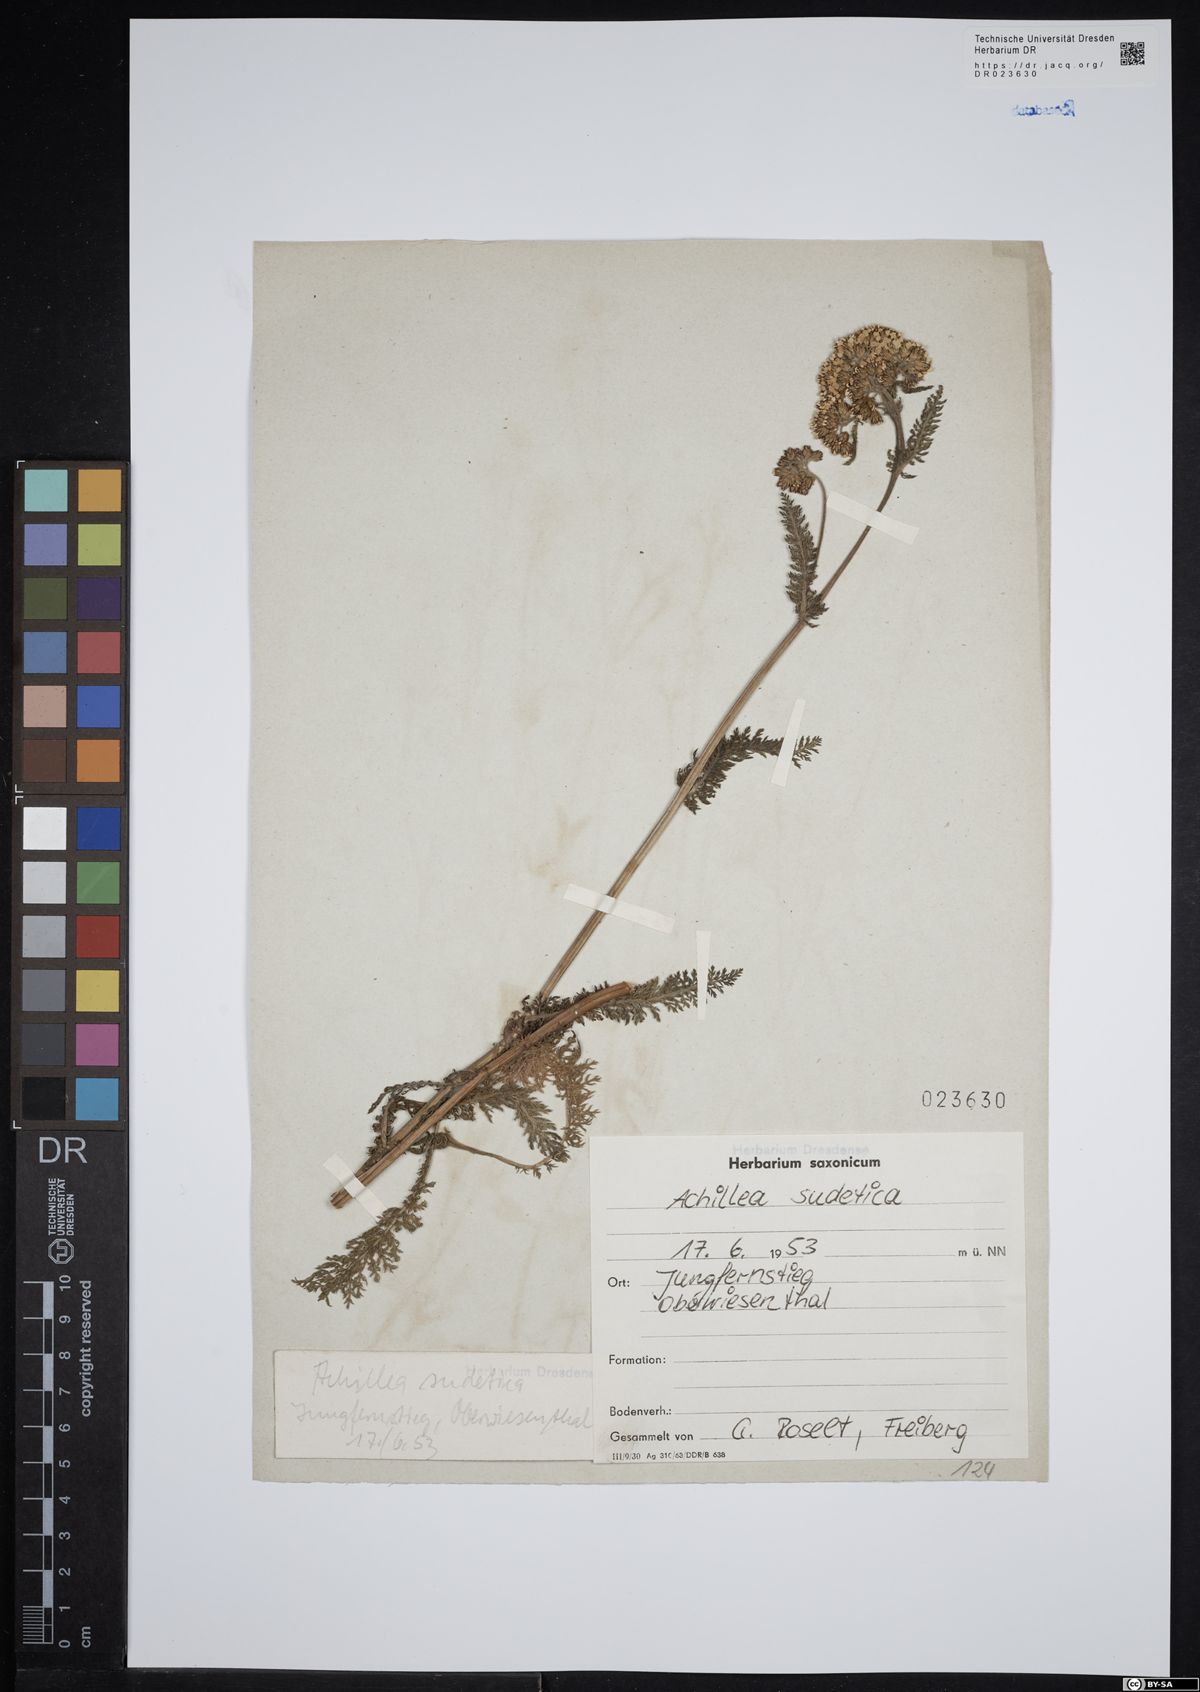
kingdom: Plantae
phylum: Tracheophyta
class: Magnoliopsida
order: Asterales
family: Asteraceae
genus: Achillea
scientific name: Achillea millefolium
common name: Yarrow
